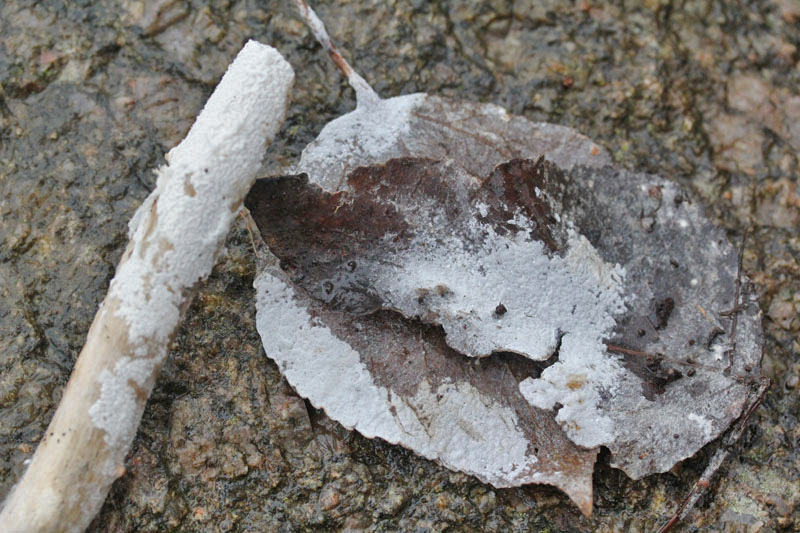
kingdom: Fungi
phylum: Basidiomycota
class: Agaricomycetes
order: Atheliales
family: Atheliaceae
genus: Athelia
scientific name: Athelia epiphylla
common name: almindelig barkhinde
